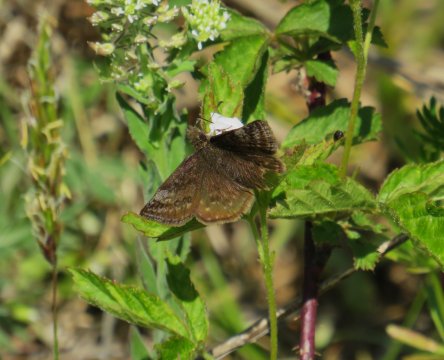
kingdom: Animalia
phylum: Arthropoda
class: Insecta
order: Lepidoptera
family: Hesperiidae
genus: Erynnis
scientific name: Erynnis icelus
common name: Dreamy Duskywing
